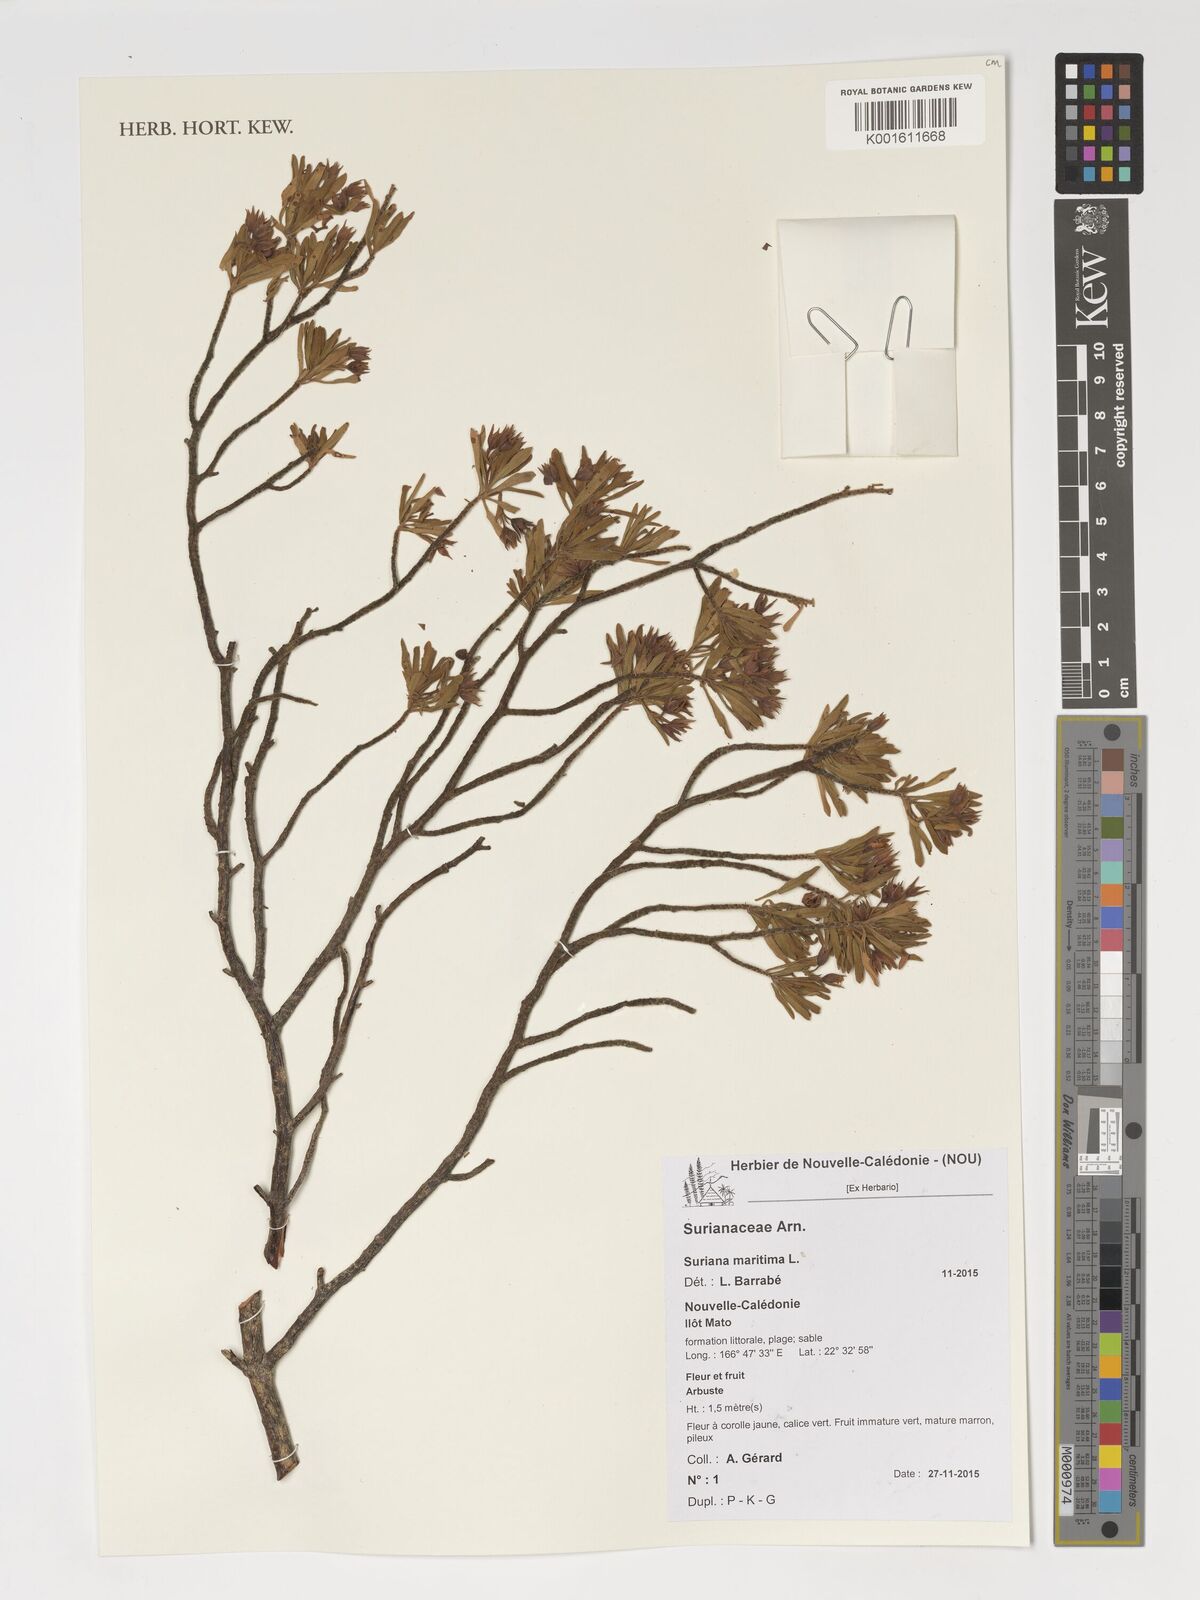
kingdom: Plantae
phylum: Tracheophyta
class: Magnoliopsida
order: Fabales
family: Surianaceae
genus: Suriana
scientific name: Suriana maritima
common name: Bay-cedar
